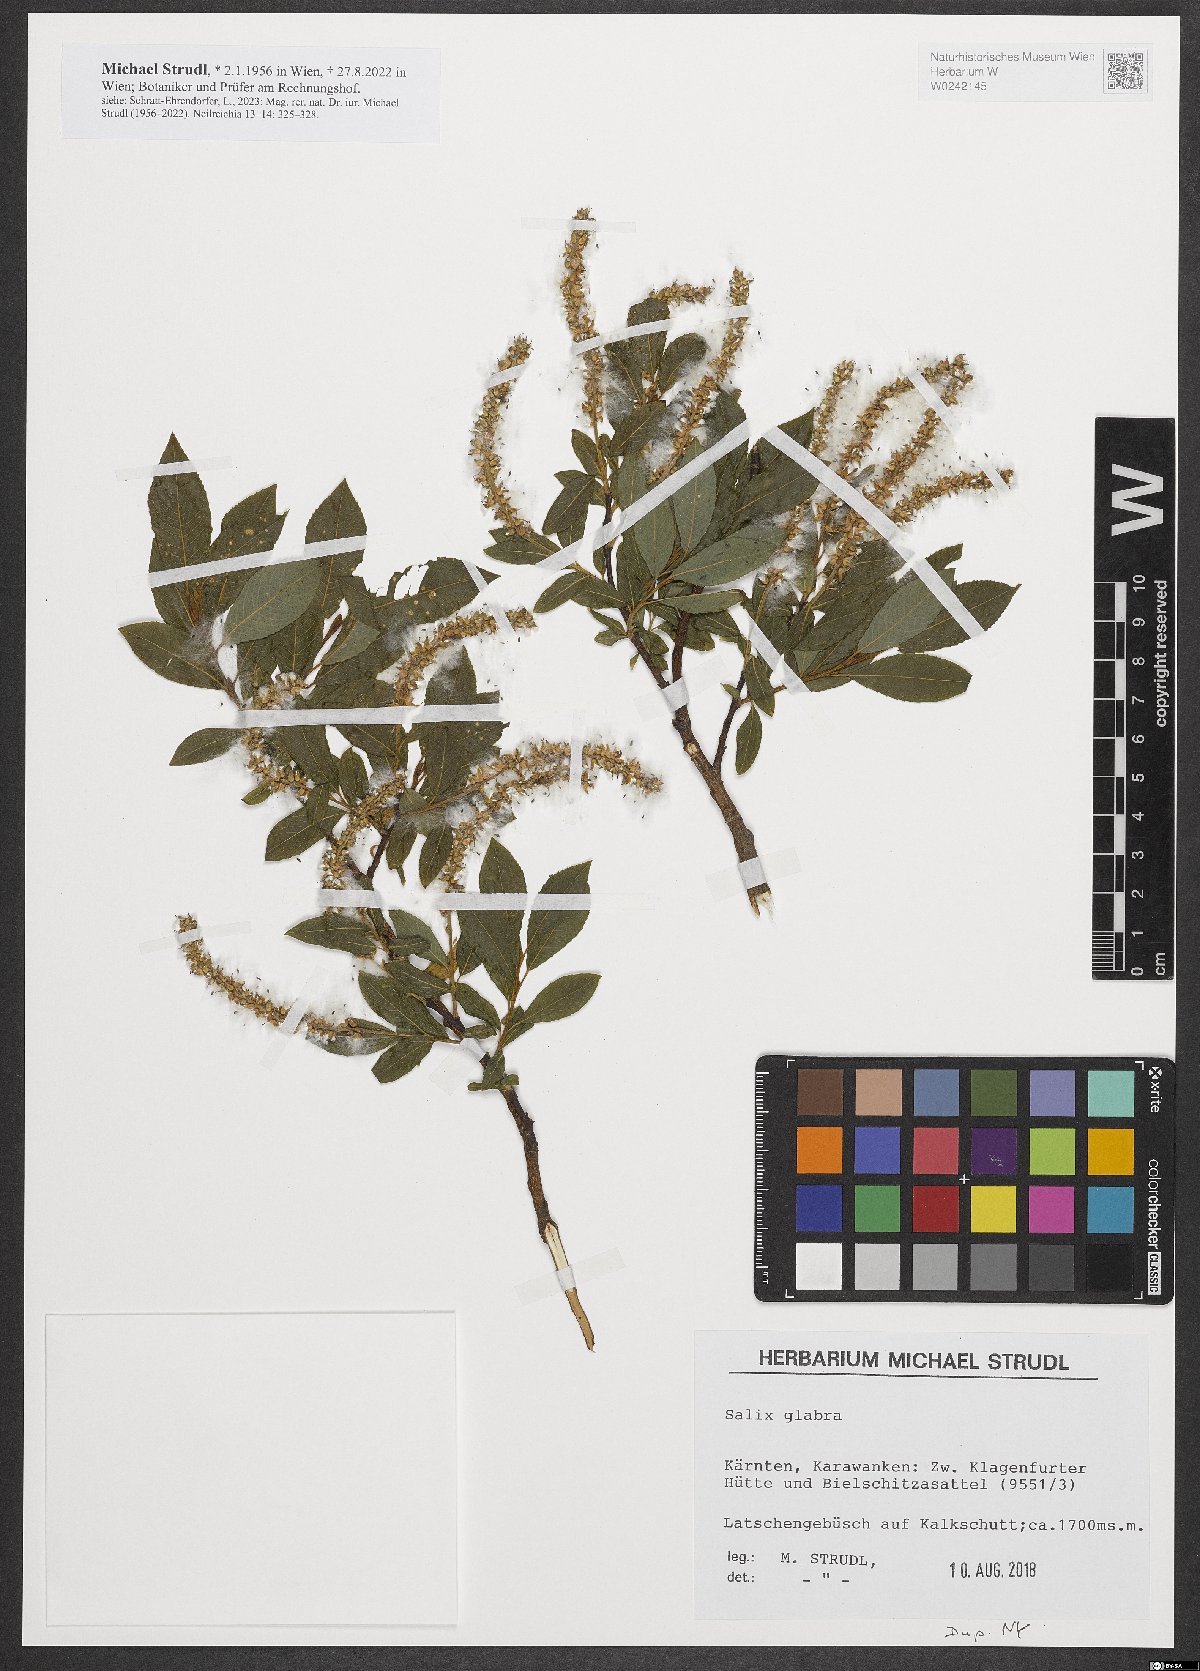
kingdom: Plantae
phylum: Tracheophyta
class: Magnoliopsida
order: Malpighiales
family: Salicaceae
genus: Salix
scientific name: Salix glabra
